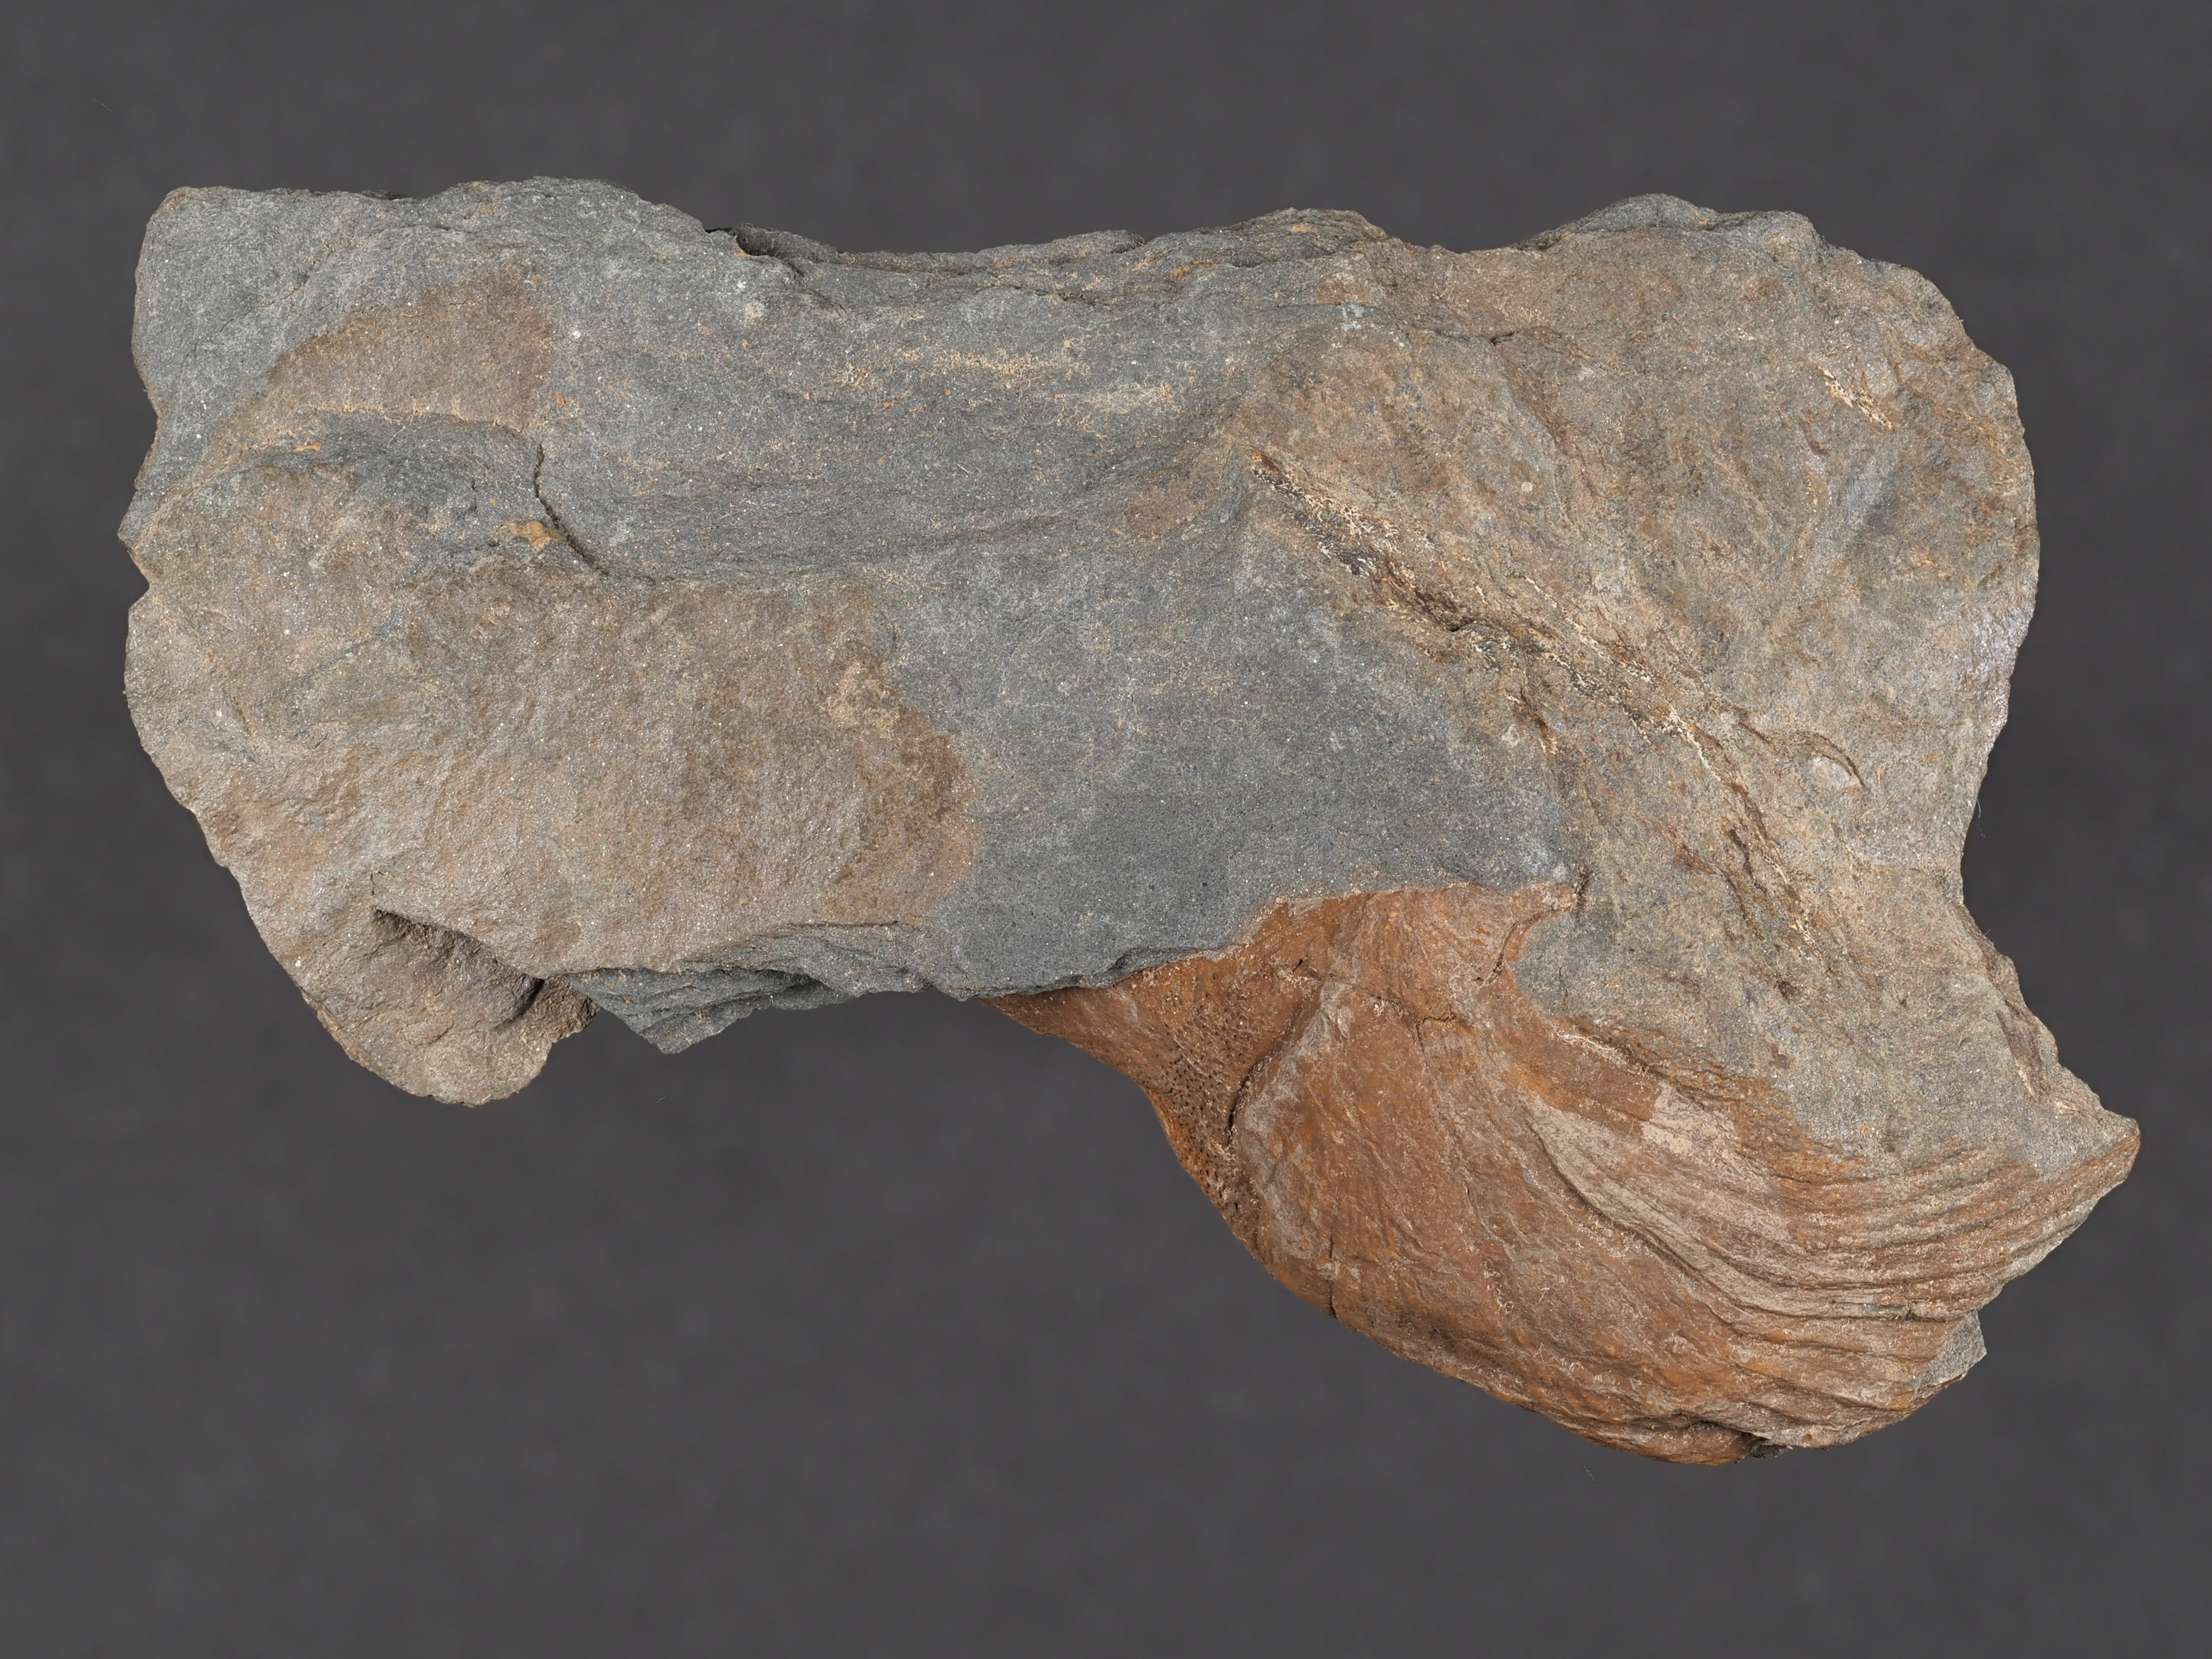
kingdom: Animalia
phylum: Brachiopoda
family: Strophodontidae
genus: Fascistropheodonta
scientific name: Fascistropheodonta
